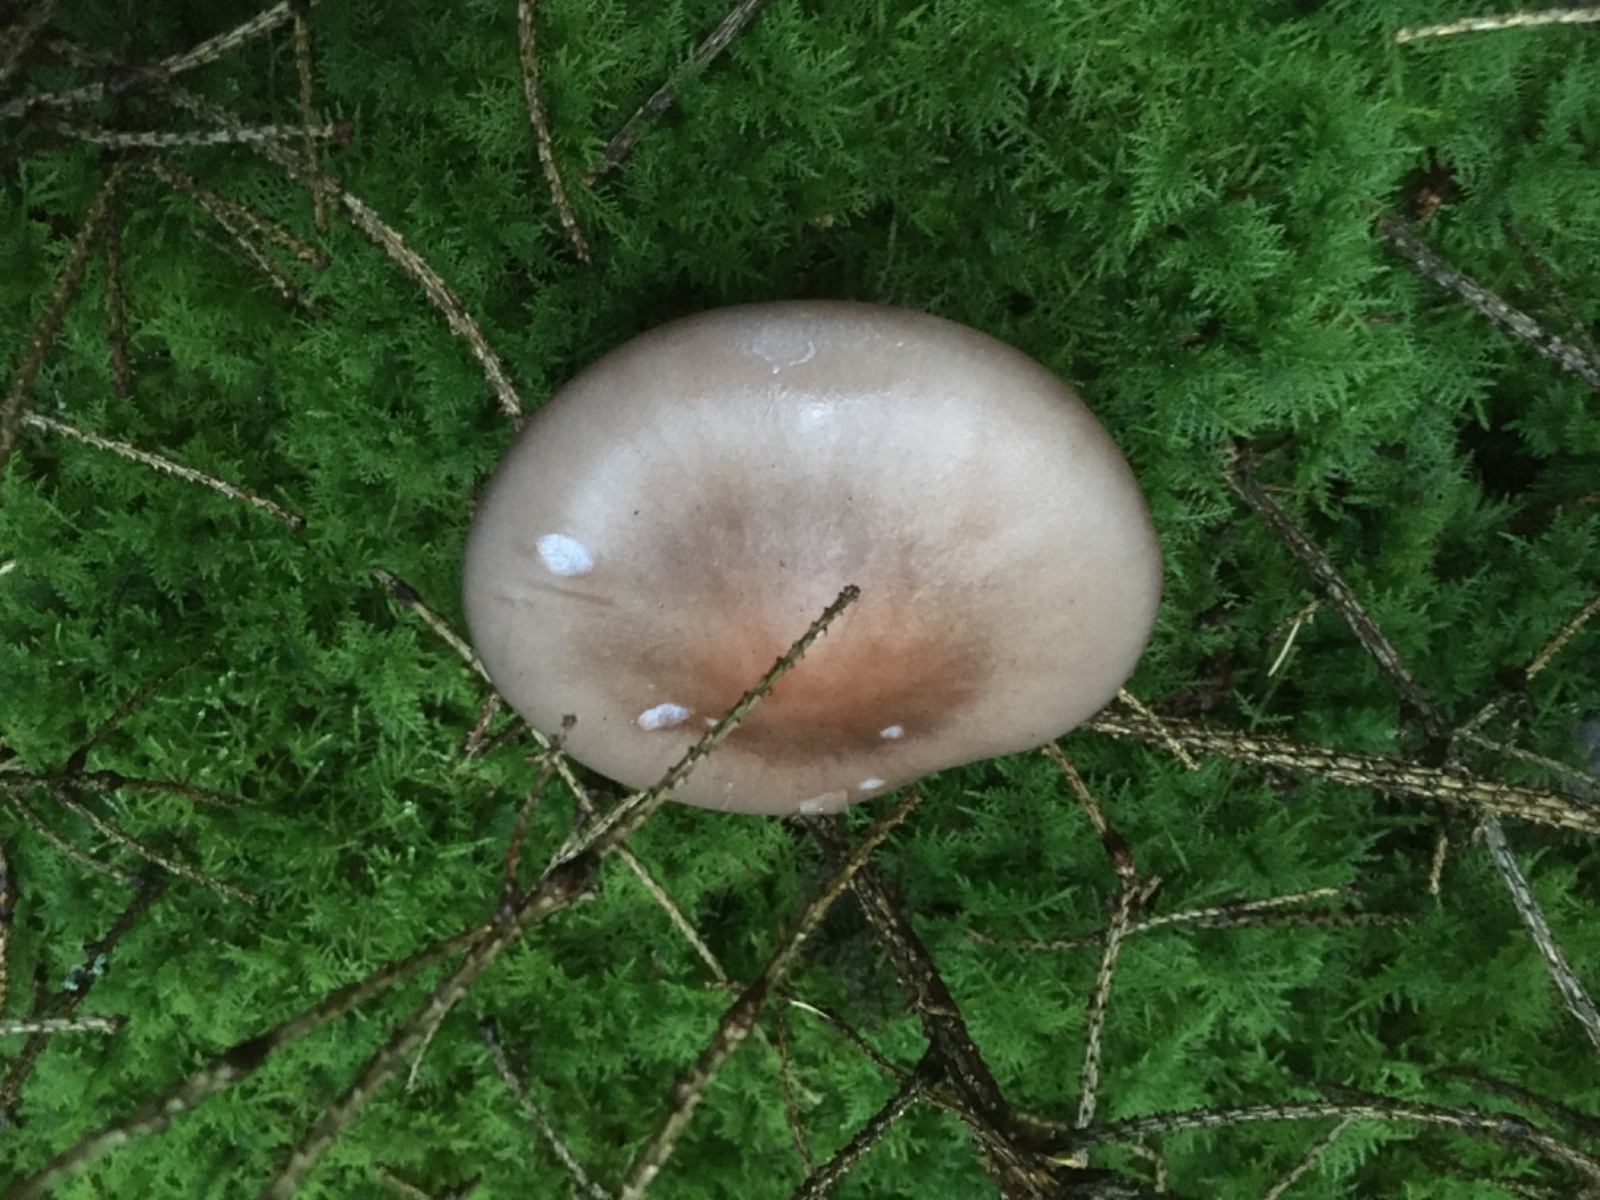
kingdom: Fungi
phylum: Basidiomycota
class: Agaricomycetes
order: Agaricales
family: Tricholomataceae
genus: Lepista
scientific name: Lepista nuda
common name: violet hekseringshat
